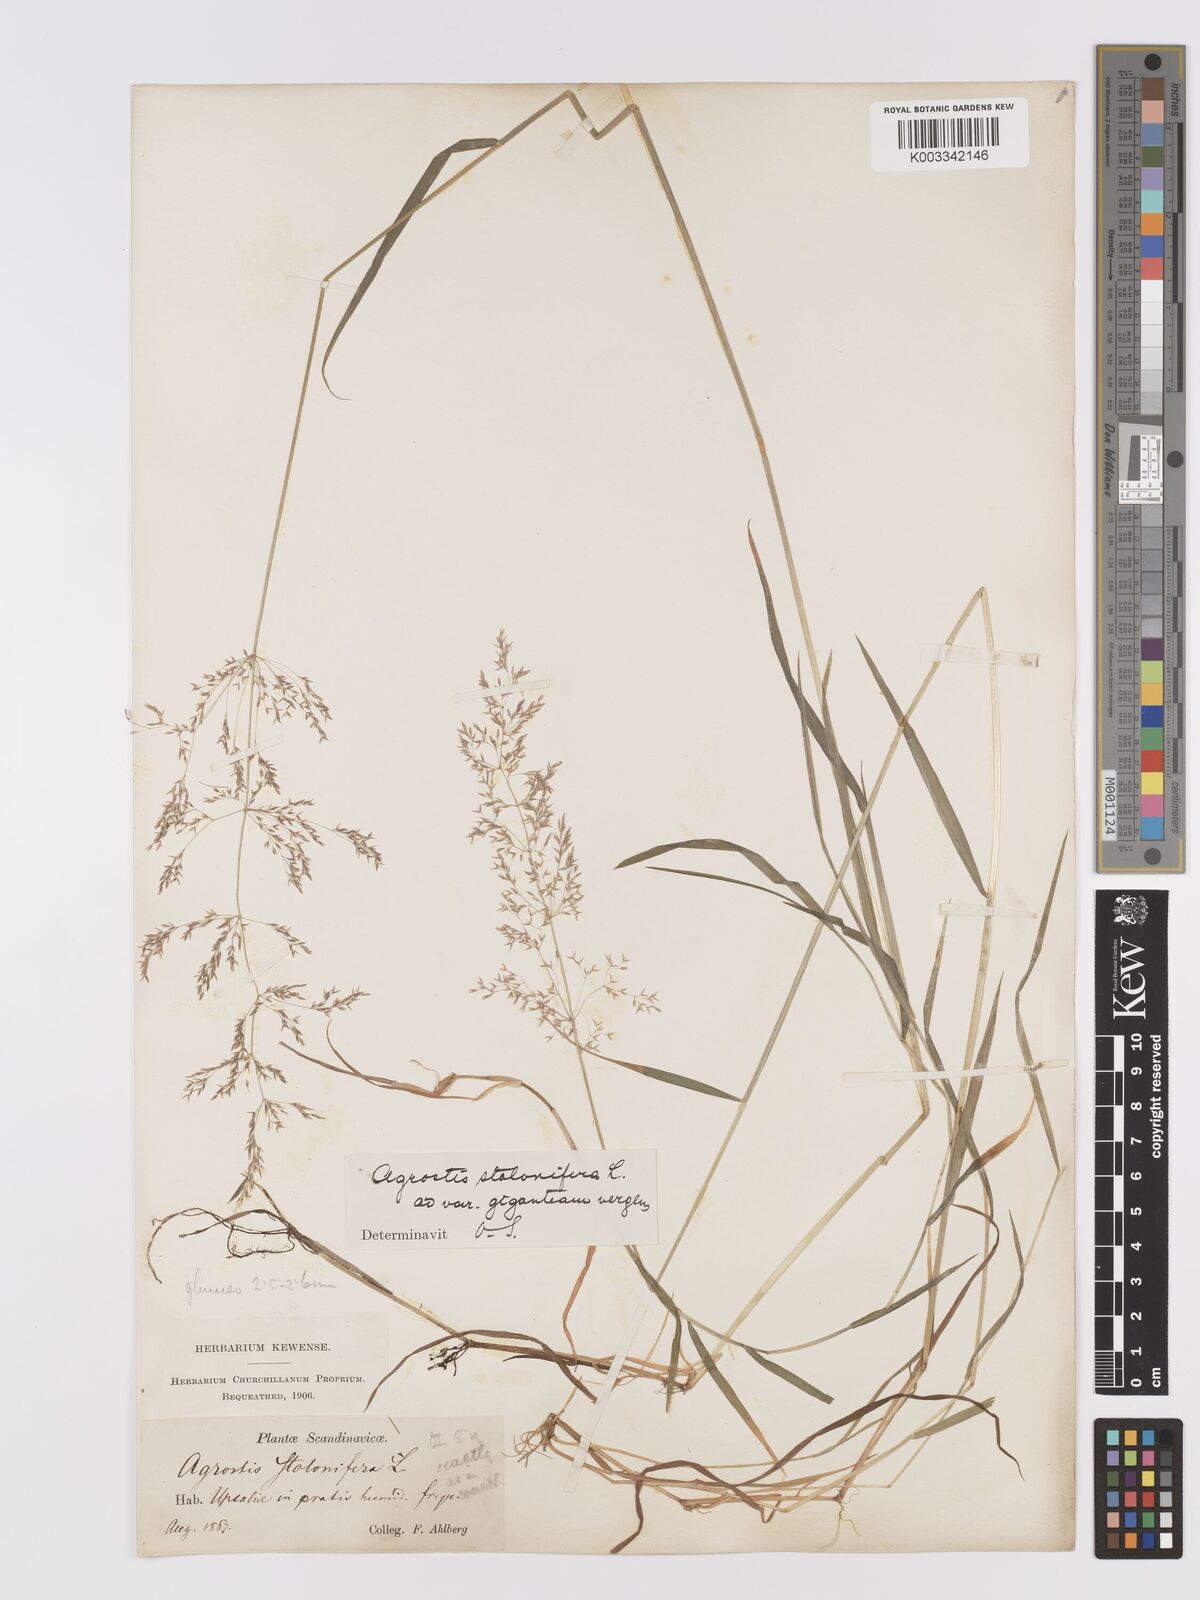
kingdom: Plantae
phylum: Tracheophyta
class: Liliopsida
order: Poales
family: Poaceae
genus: Agrostis
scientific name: Agrostis stolonifera
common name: Creeping bentgrass
